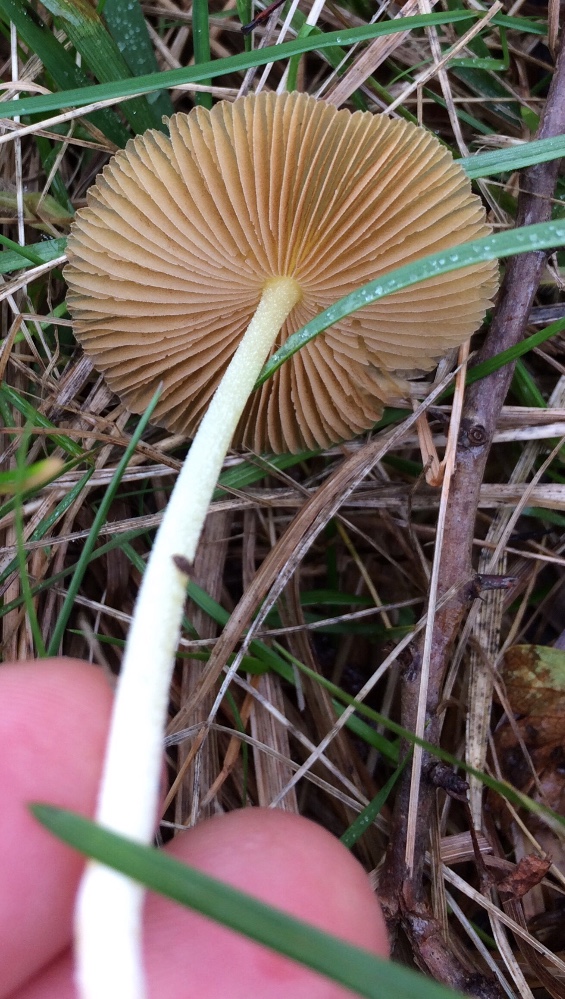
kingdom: Fungi
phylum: Basidiomycota
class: Agaricomycetes
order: Agaricales
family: Bolbitiaceae
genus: Bolbitius
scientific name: Bolbitius titubans
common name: almindelig gulhat
